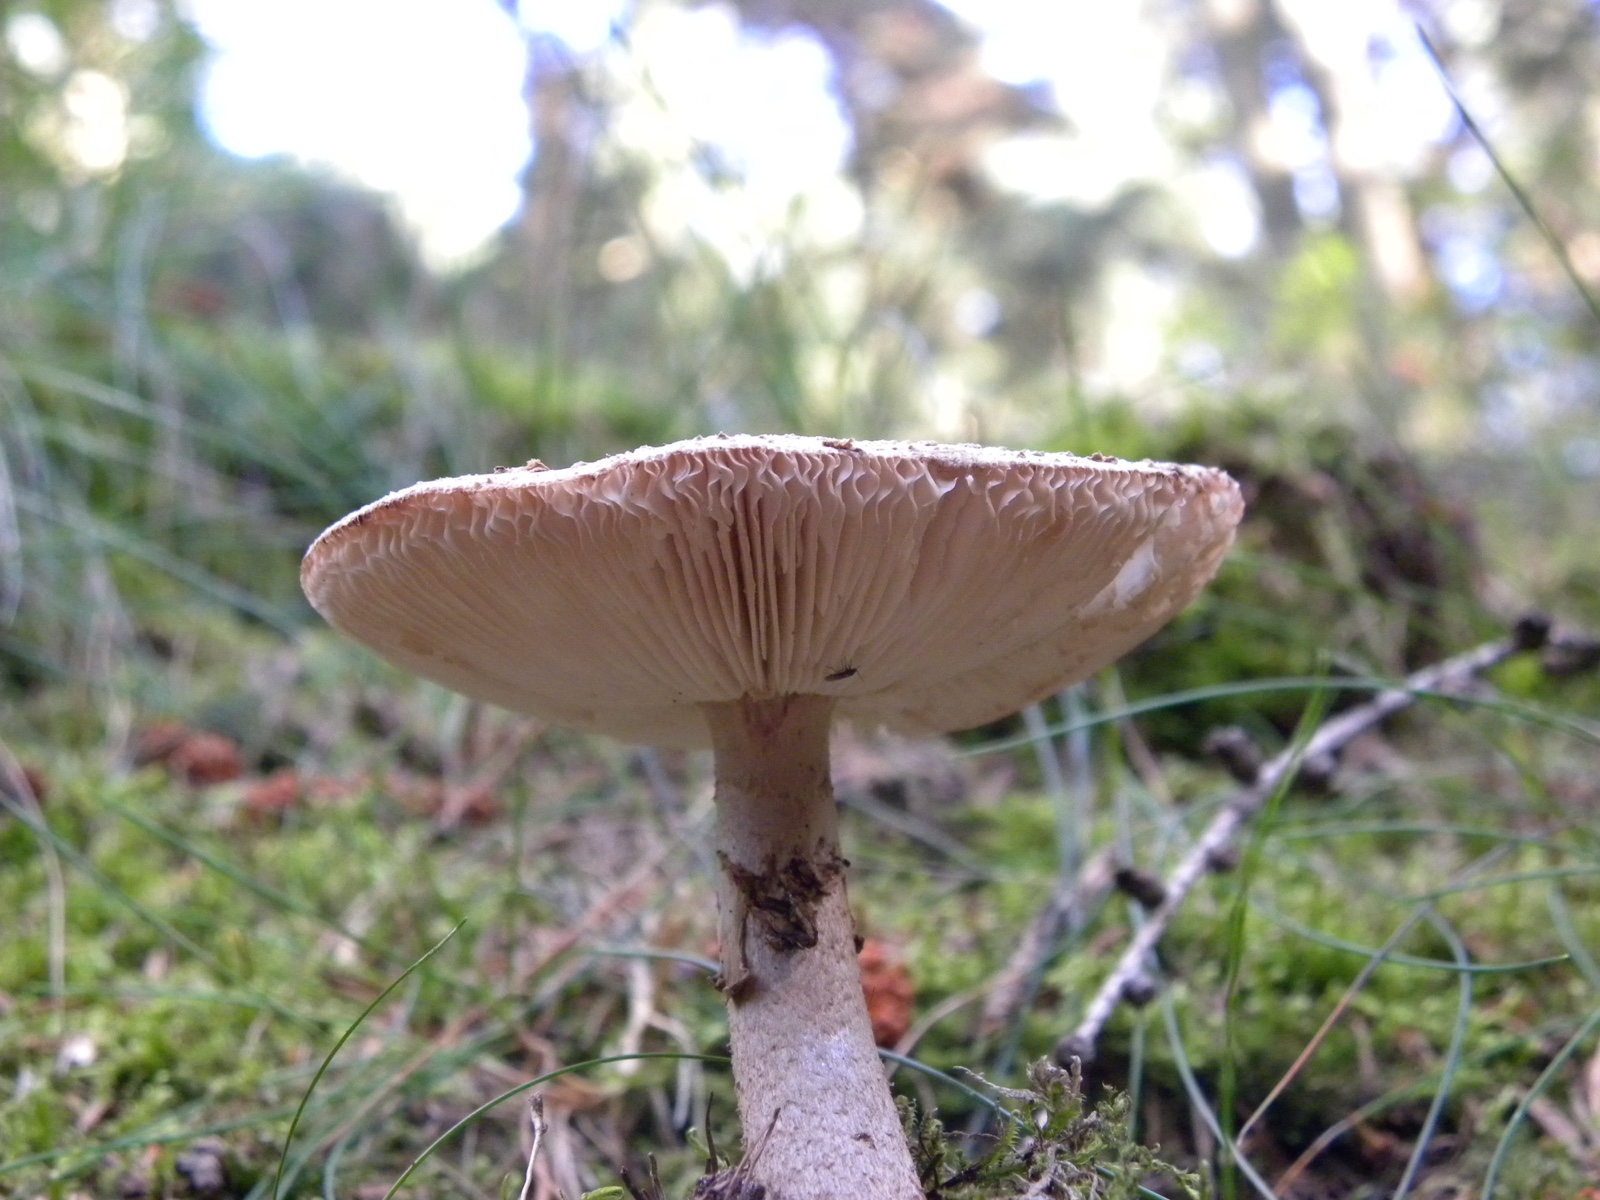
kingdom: Fungi
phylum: Basidiomycota
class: Agaricomycetes
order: Agaricales
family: Amanitaceae
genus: Amanita
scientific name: Amanita
